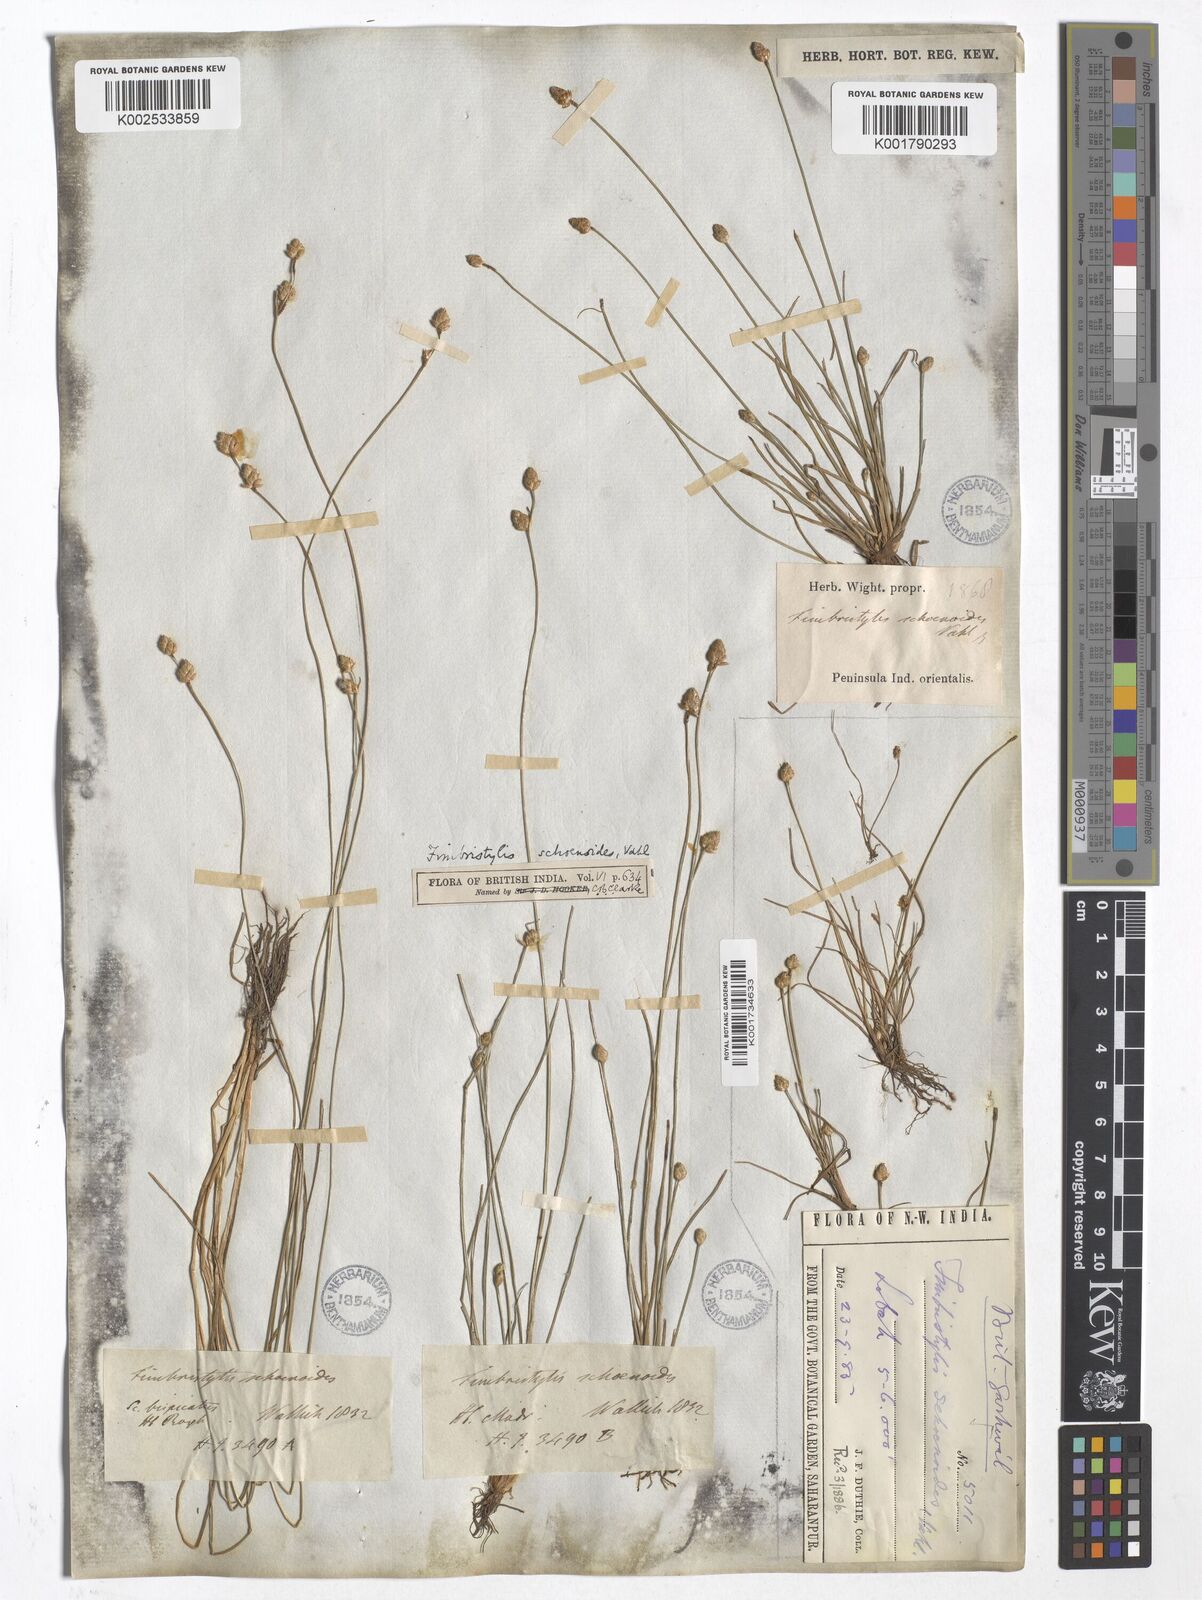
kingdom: Plantae
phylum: Tracheophyta
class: Liliopsida
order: Poales
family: Cyperaceae
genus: Fimbristylis
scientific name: Fimbristylis schoenoides
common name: Ditch fimbry
